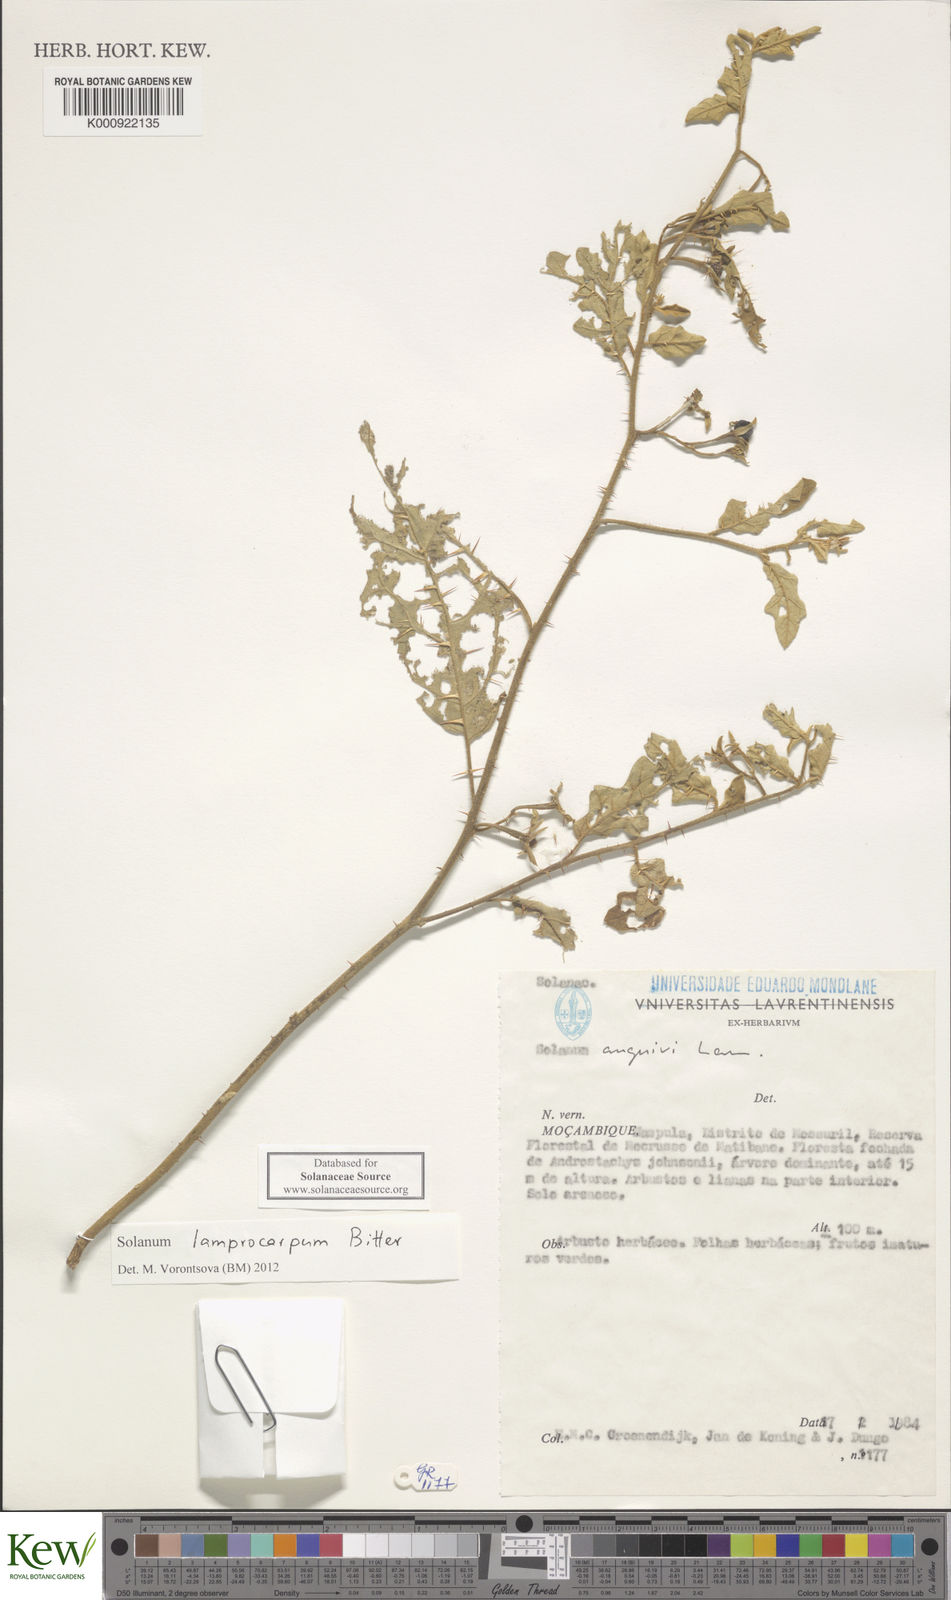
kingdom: Plantae
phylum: Tracheophyta
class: Magnoliopsida
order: Solanales
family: Solanaceae
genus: Solanum
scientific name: Solanum lamprocarpum
